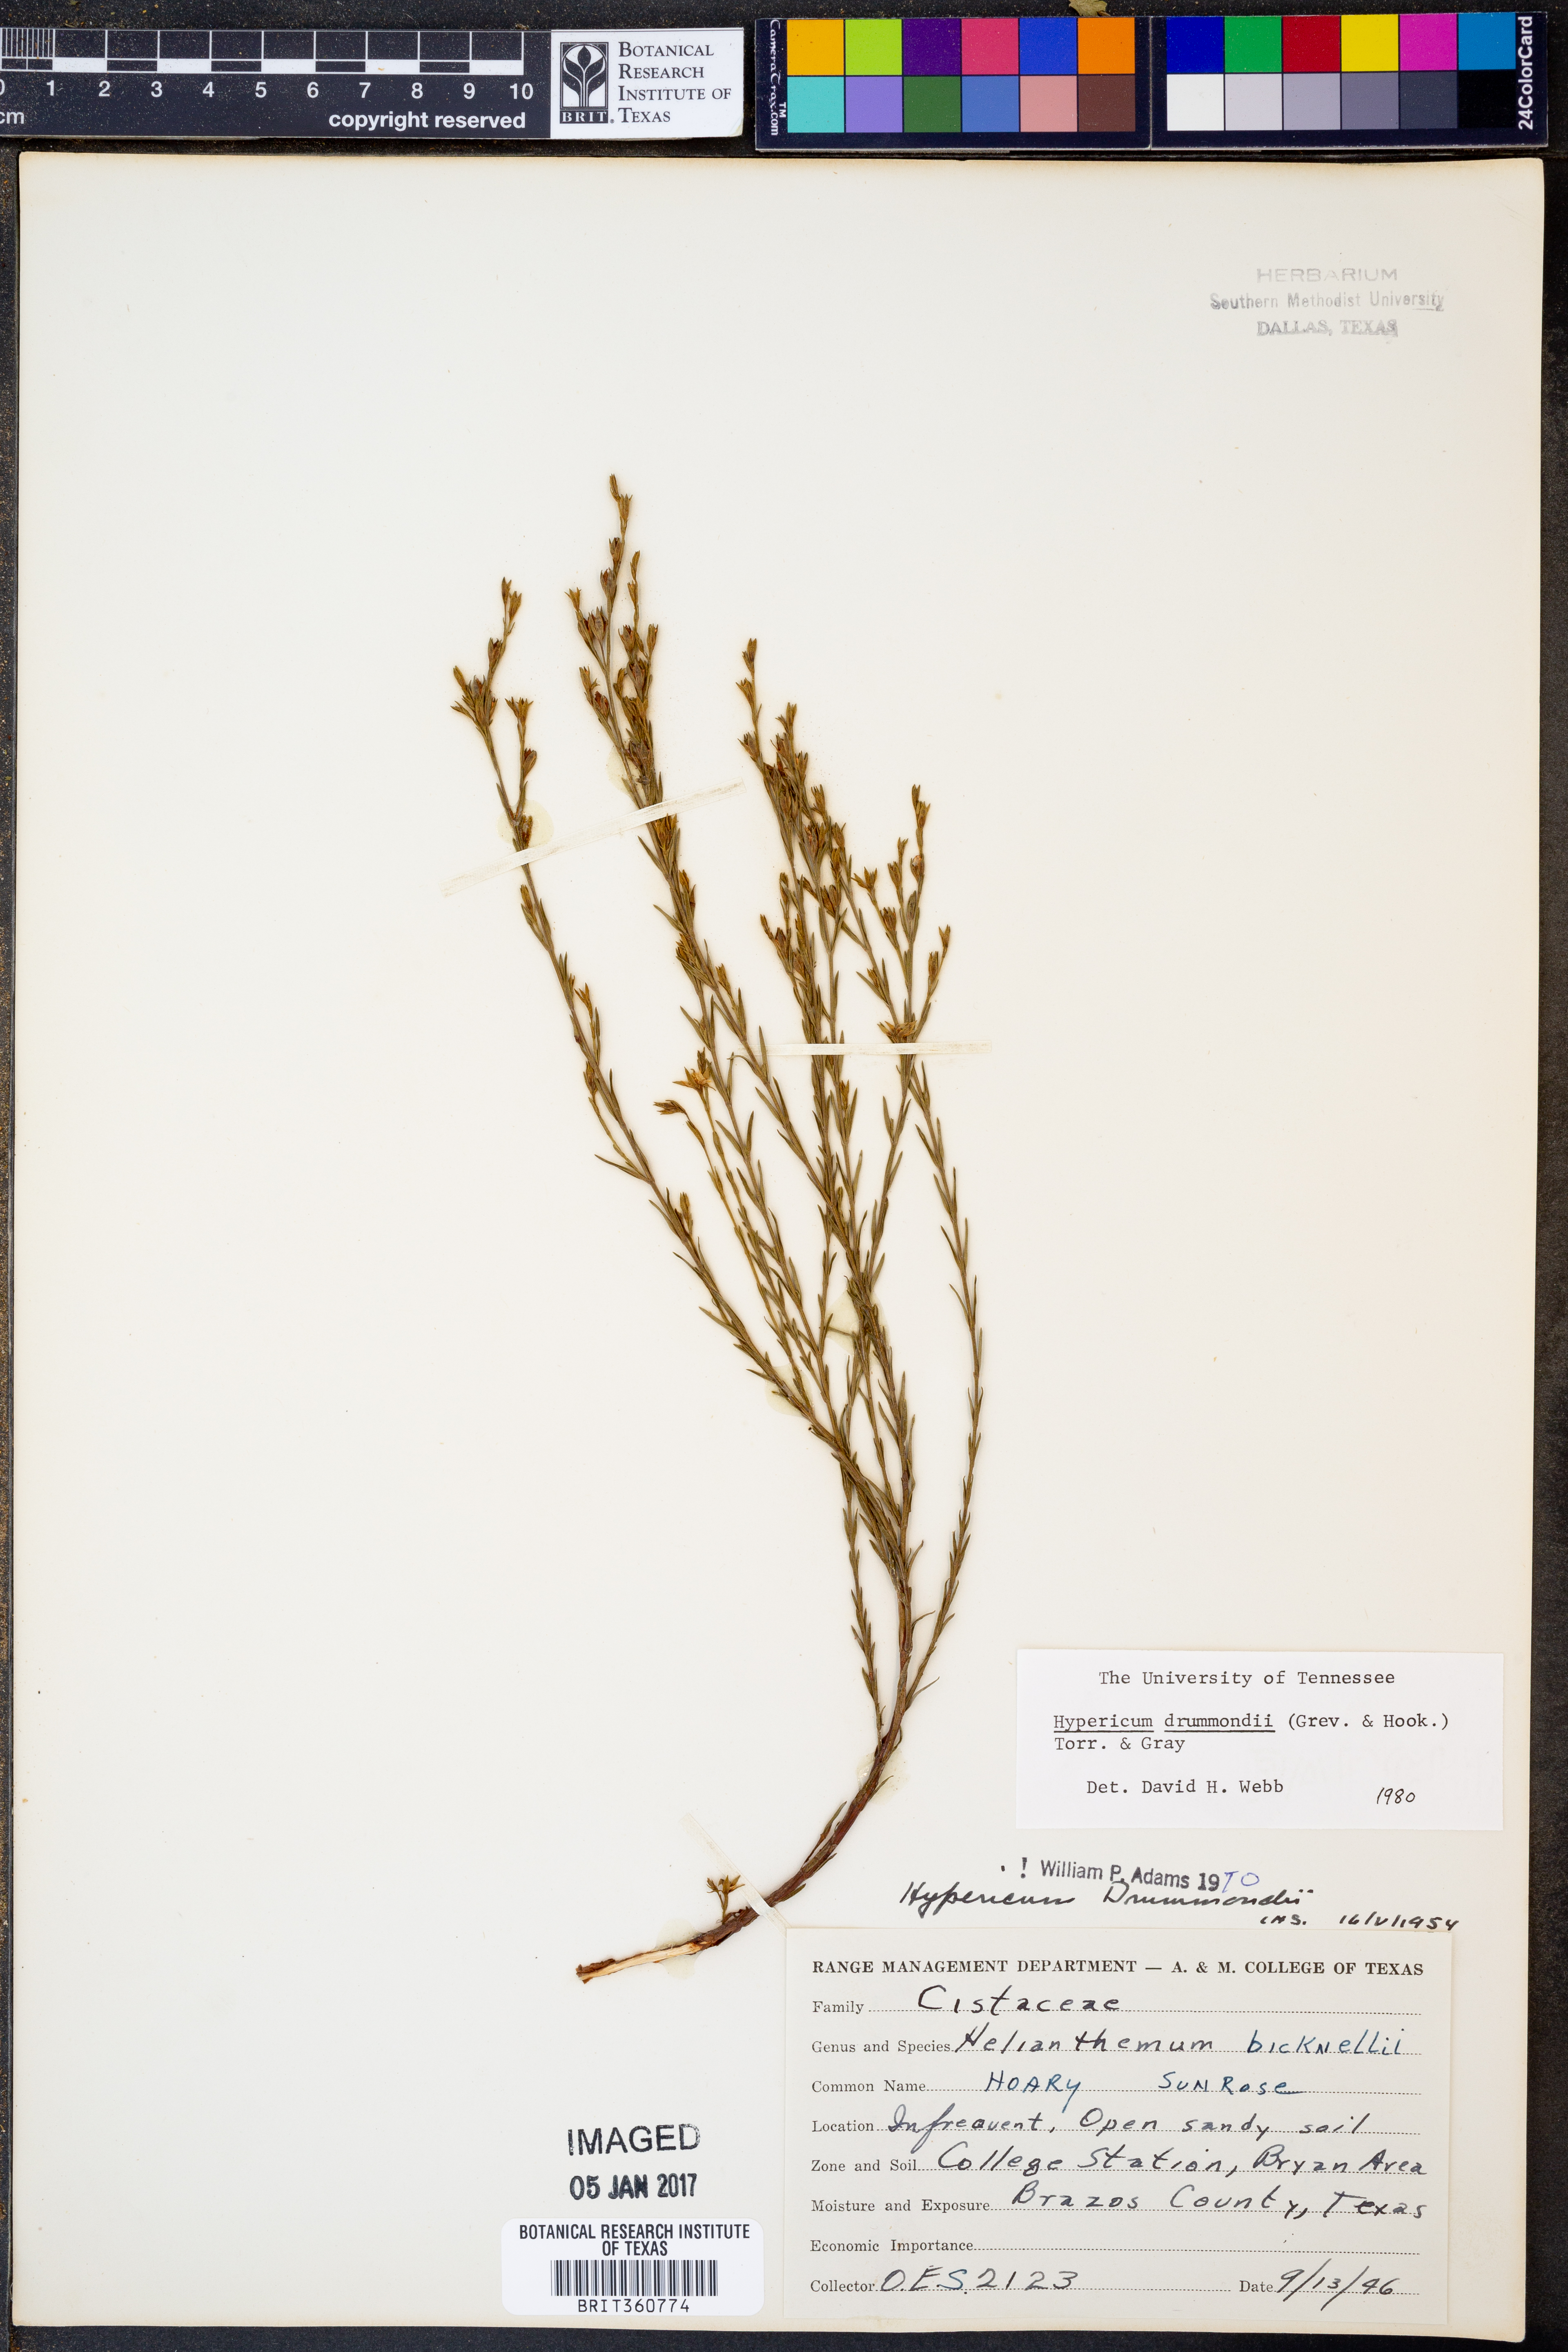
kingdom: Plantae
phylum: Tracheophyta
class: Magnoliopsida
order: Malpighiales
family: Hypericaceae
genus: Hypericum
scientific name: Hypericum drummondii
